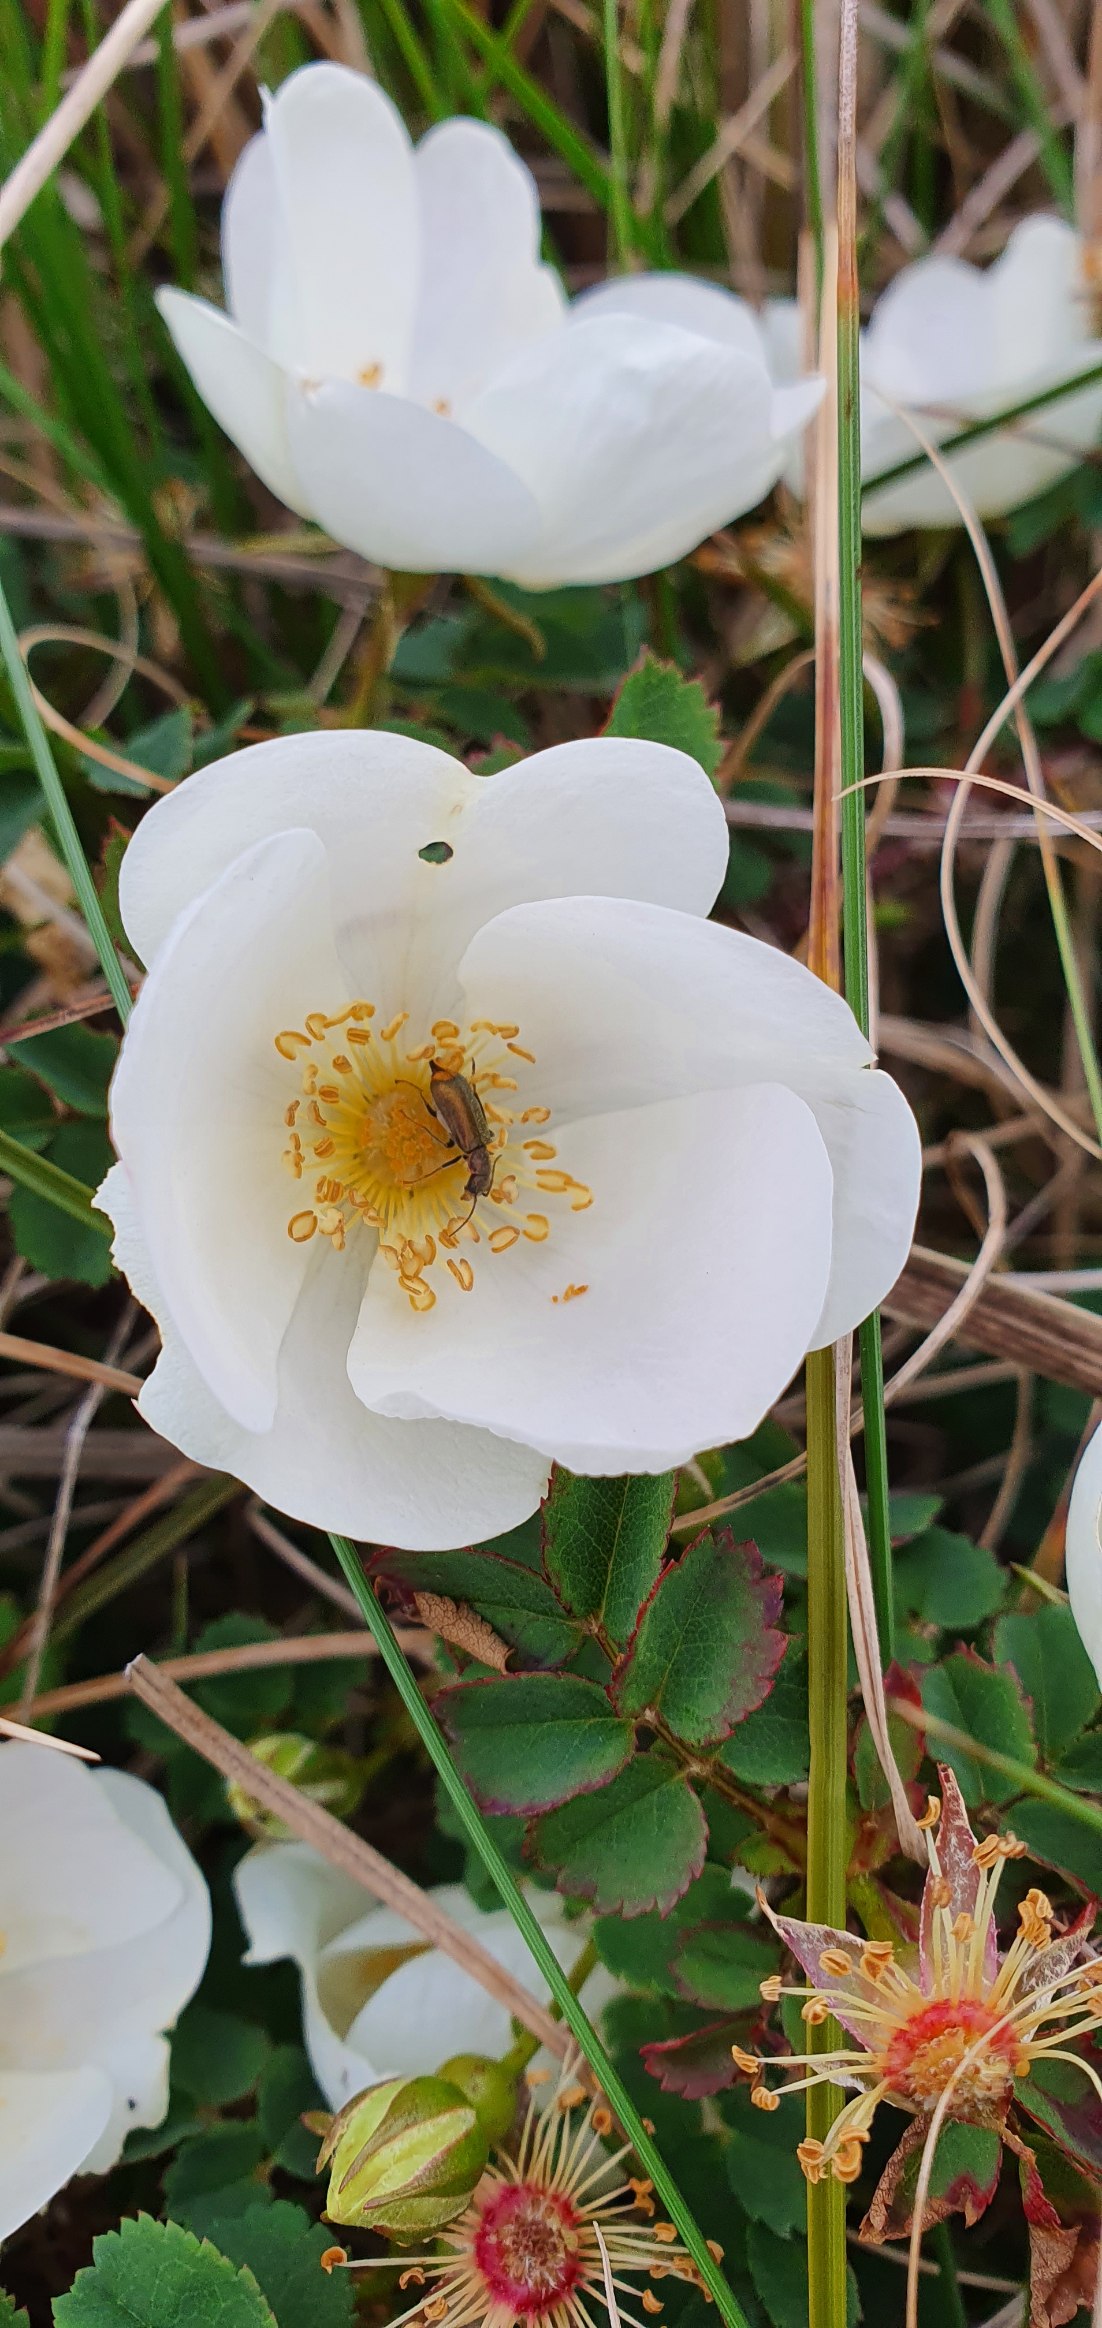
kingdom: Plantae
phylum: Tracheophyta
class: Magnoliopsida
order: Rosales
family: Rosaceae
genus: Rosa
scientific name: Rosa spinosissima
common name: Klit-rose
